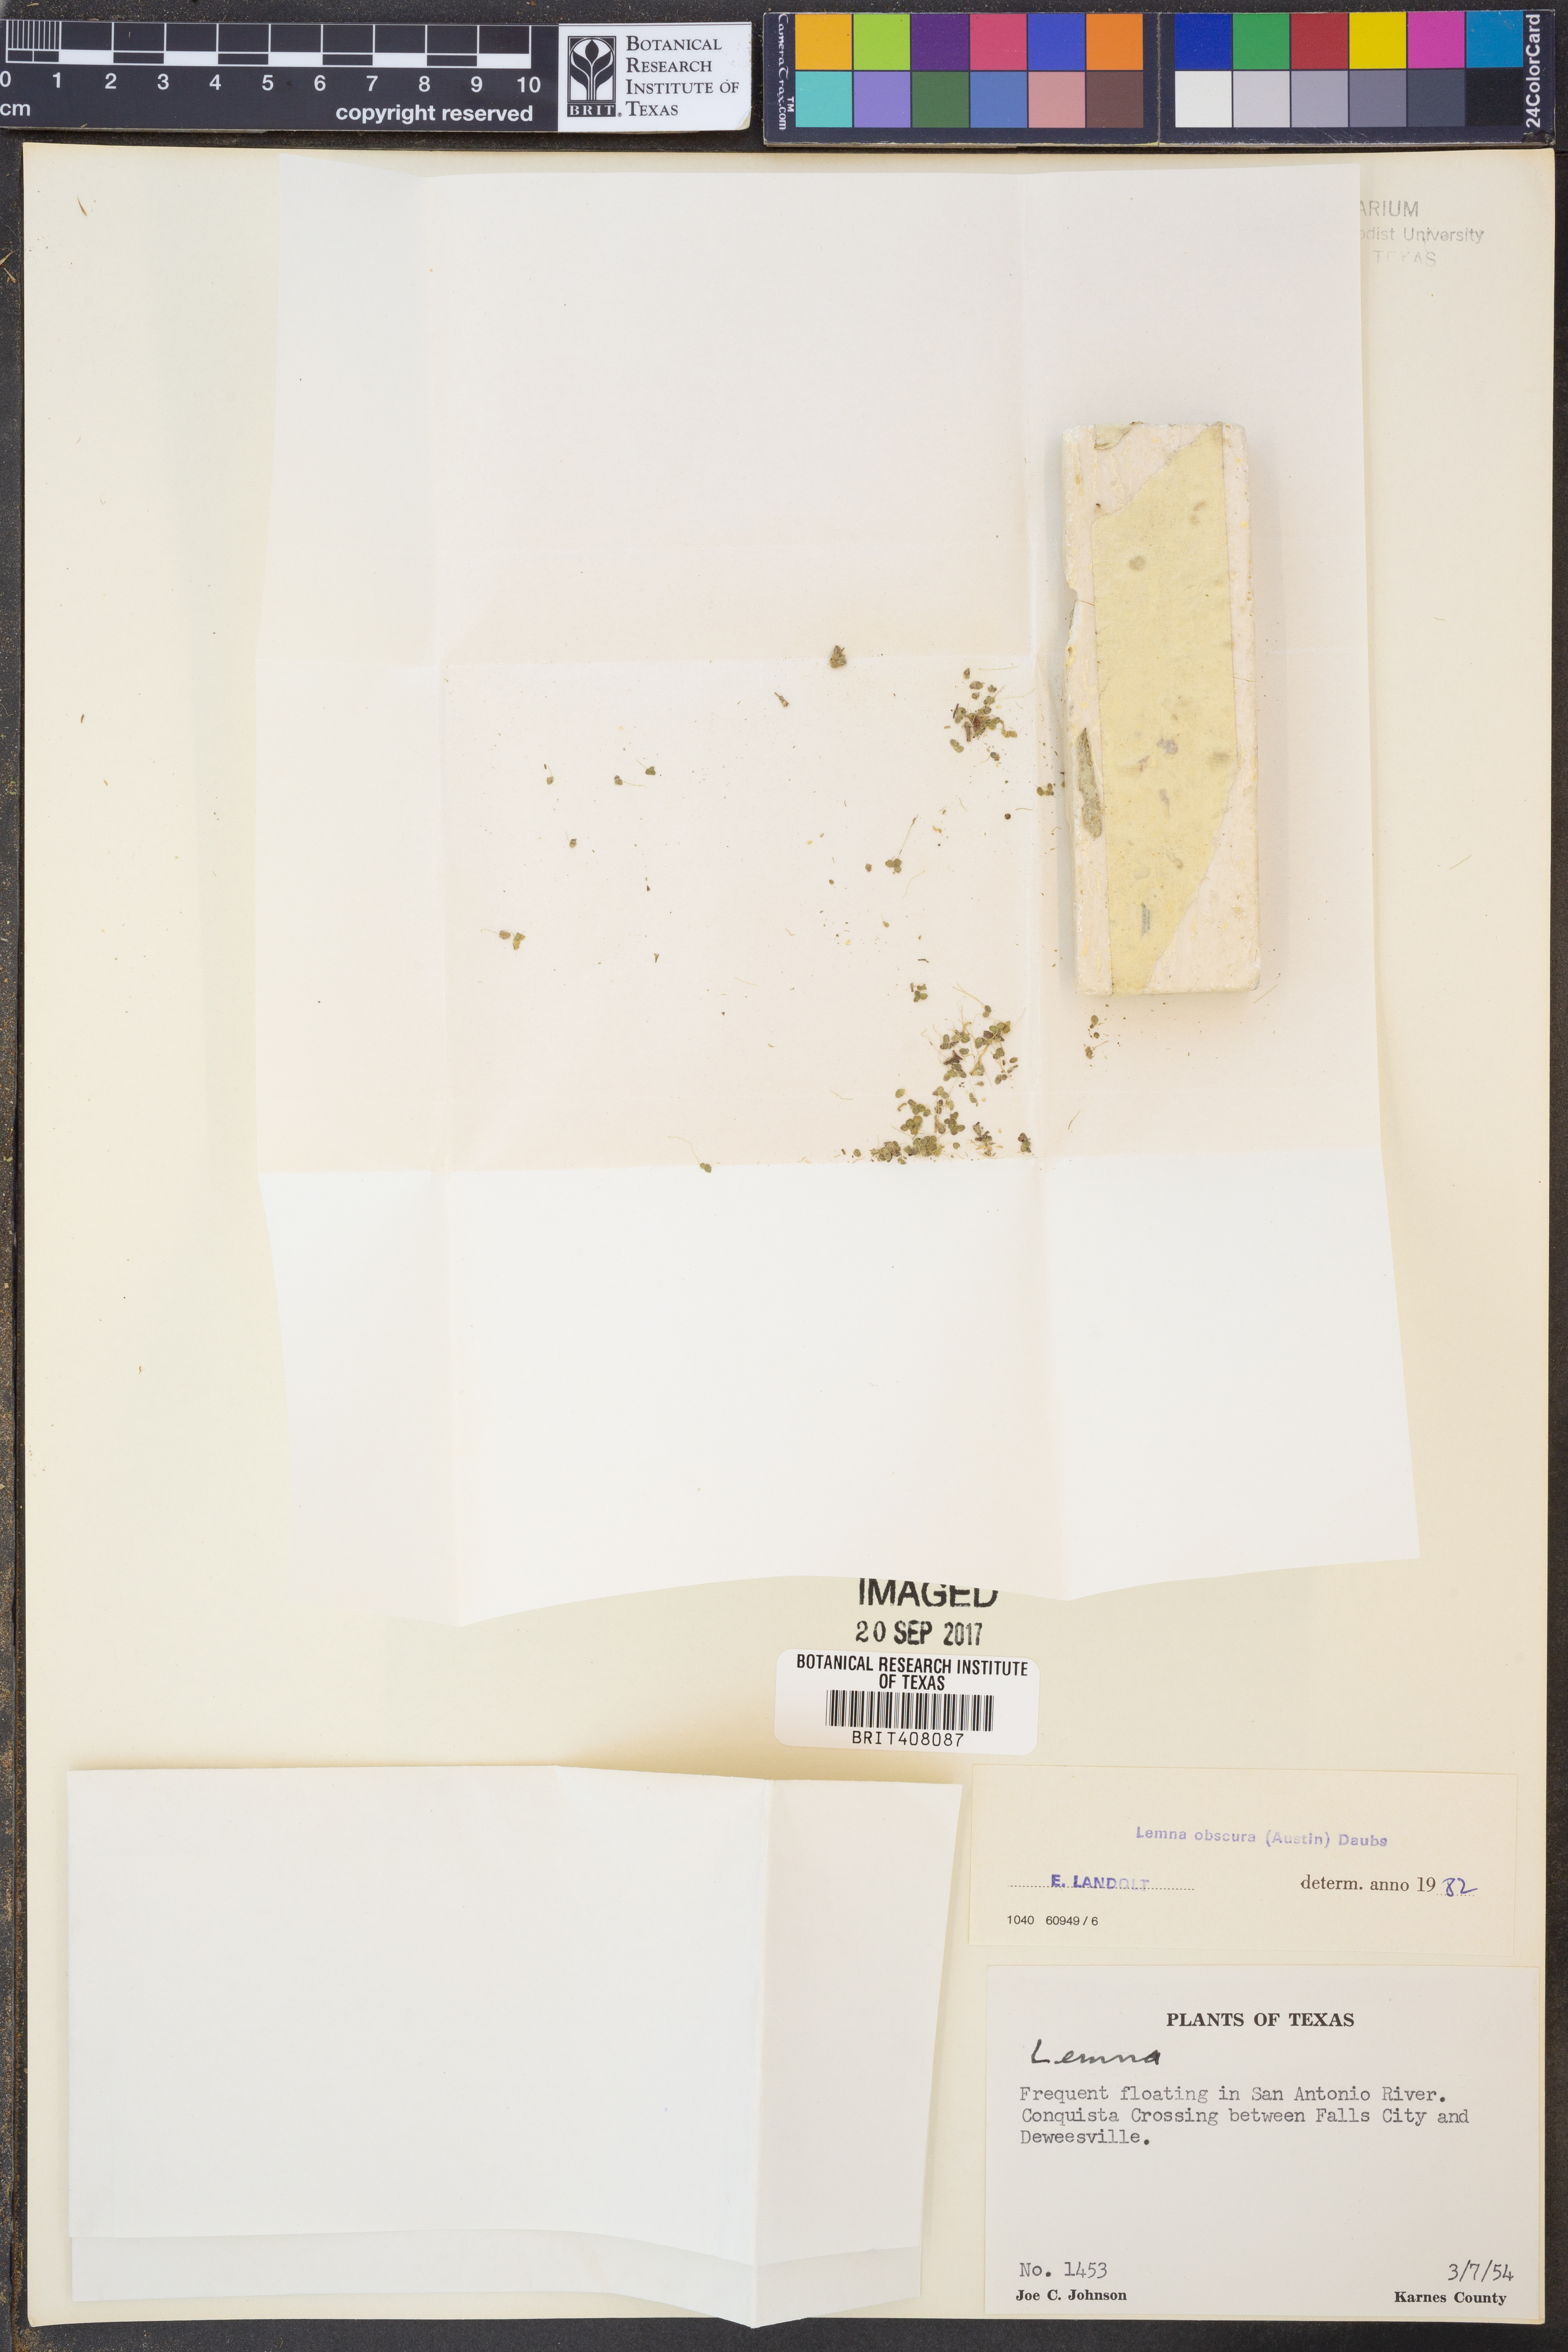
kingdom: Plantae
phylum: Tracheophyta
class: Liliopsida
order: Alismatales
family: Araceae
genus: Lemna
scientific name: Lemna obscura
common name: Little duckweed
